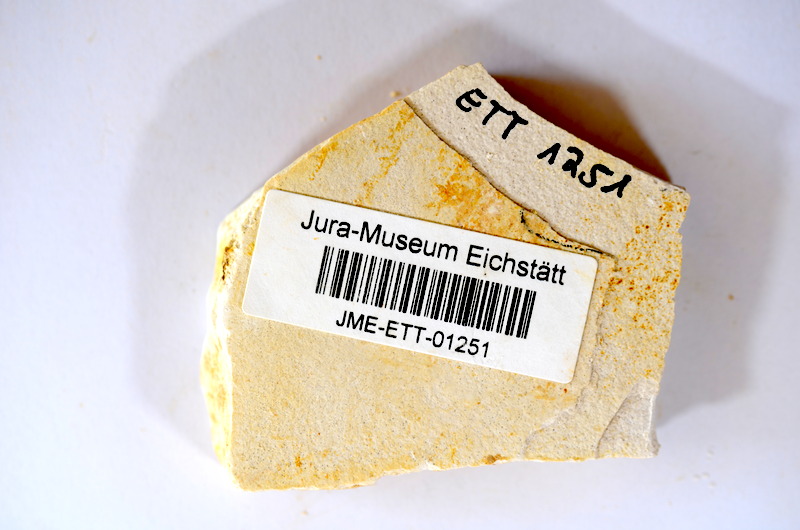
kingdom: Animalia
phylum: Chordata
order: Salmoniformes
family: Orthogonikleithridae
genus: Orthogonikleithrus
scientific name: Orthogonikleithrus hoelli
